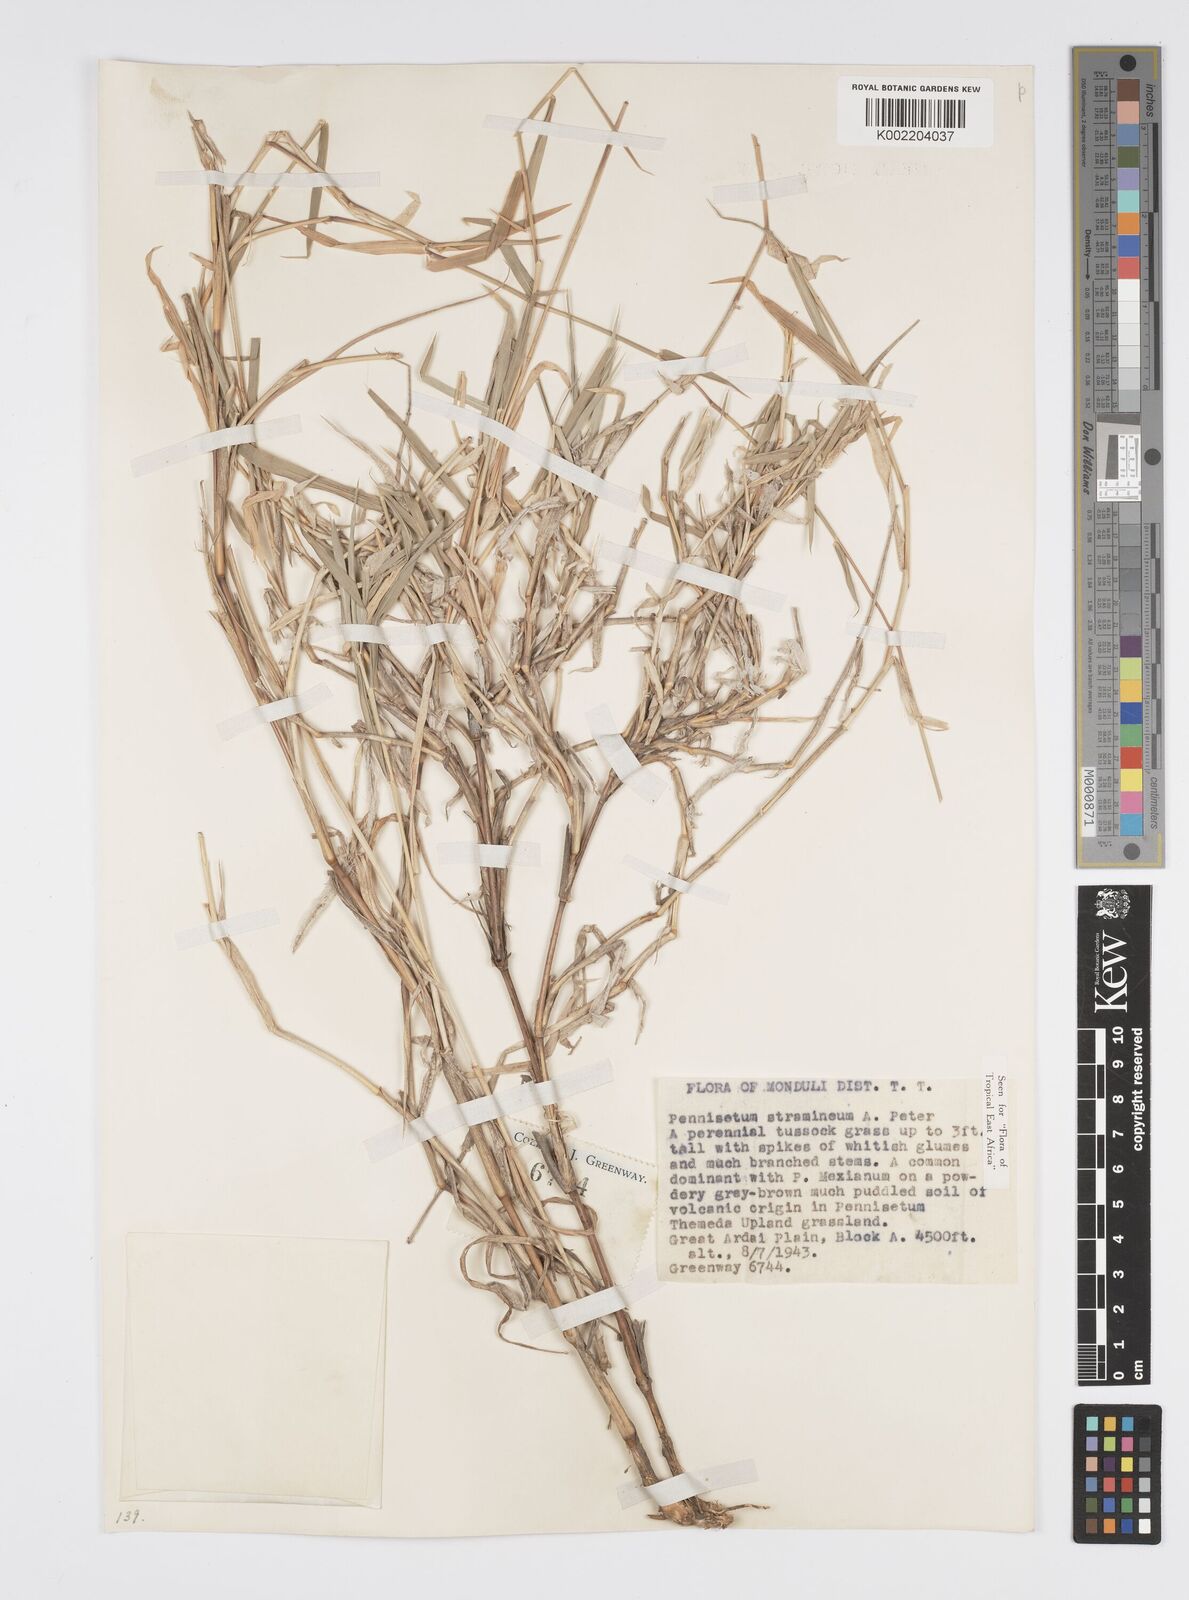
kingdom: Plantae
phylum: Tracheophyta
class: Liliopsida
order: Poales
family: Poaceae
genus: Cenchrus
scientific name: Cenchrus stramineus
